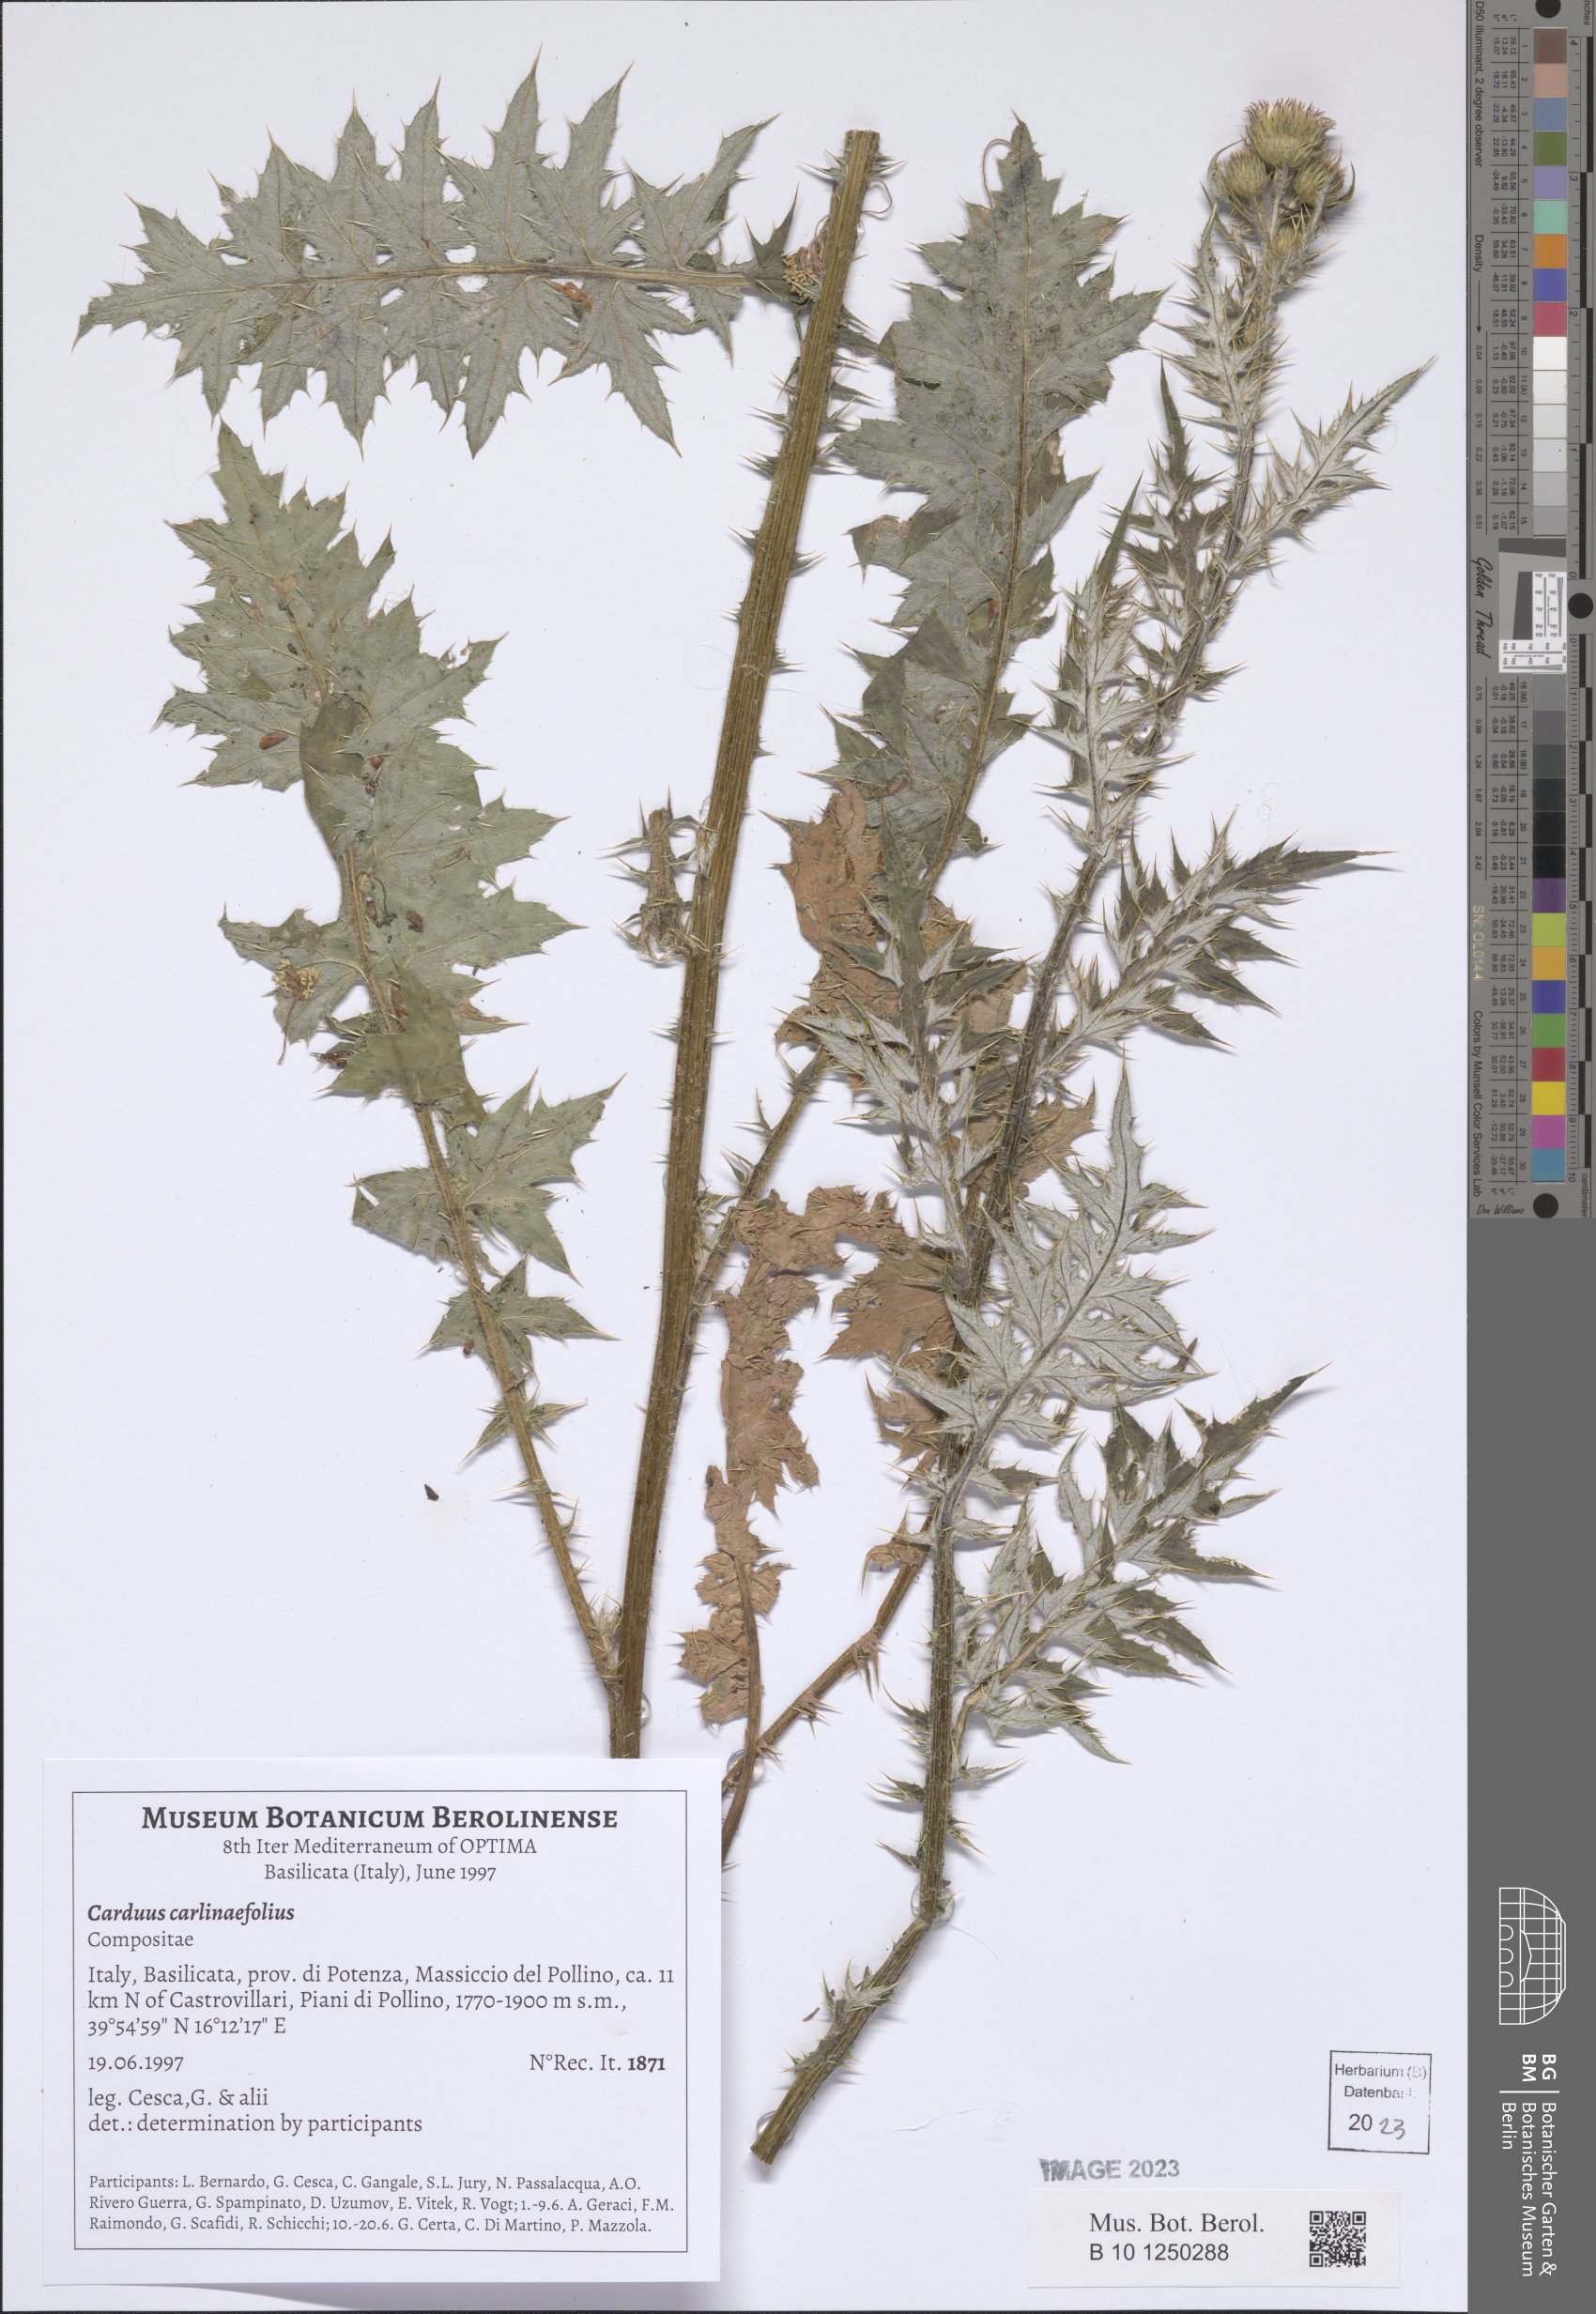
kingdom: Plantae
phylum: Tracheophyta
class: Magnoliopsida
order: Asterales
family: Asteraceae
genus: Carduus
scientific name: Carduus carlinifolius
